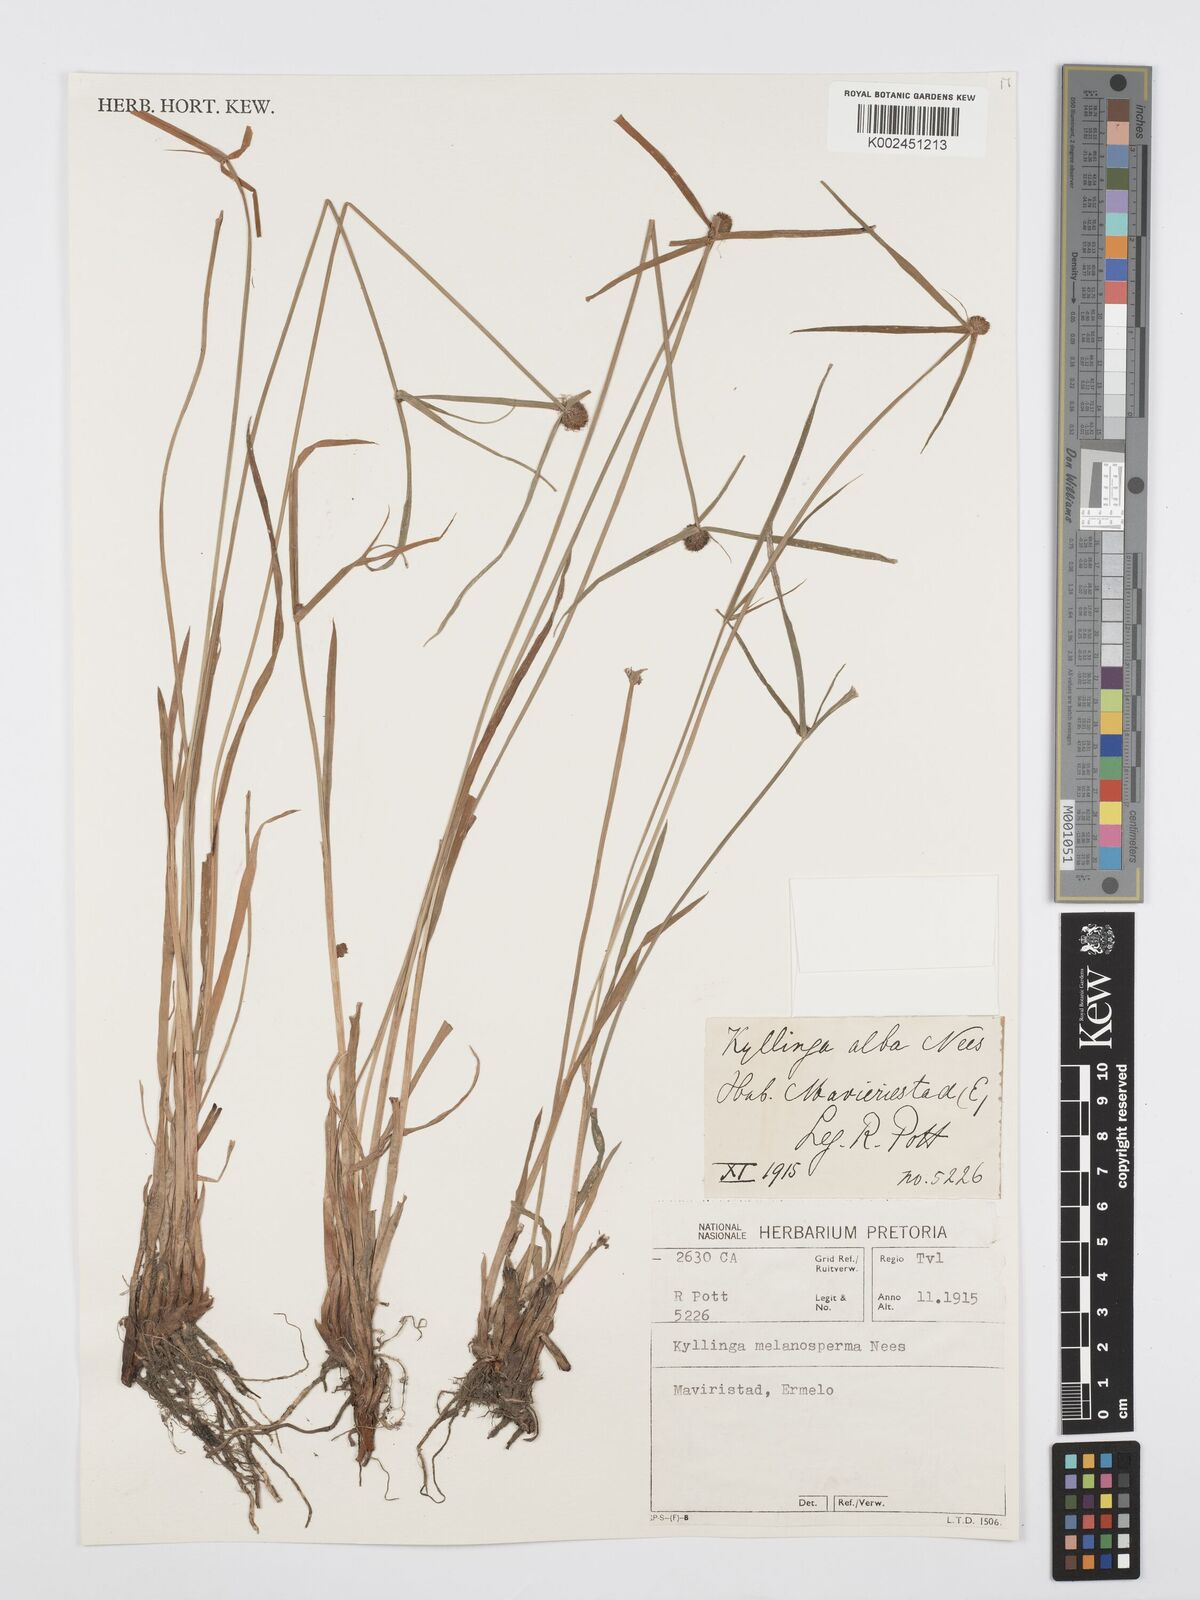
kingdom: Plantae
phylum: Tracheophyta
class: Liliopsida
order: Poales
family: Cyperaceae
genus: Cyperus
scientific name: Cyperus melanospermus
